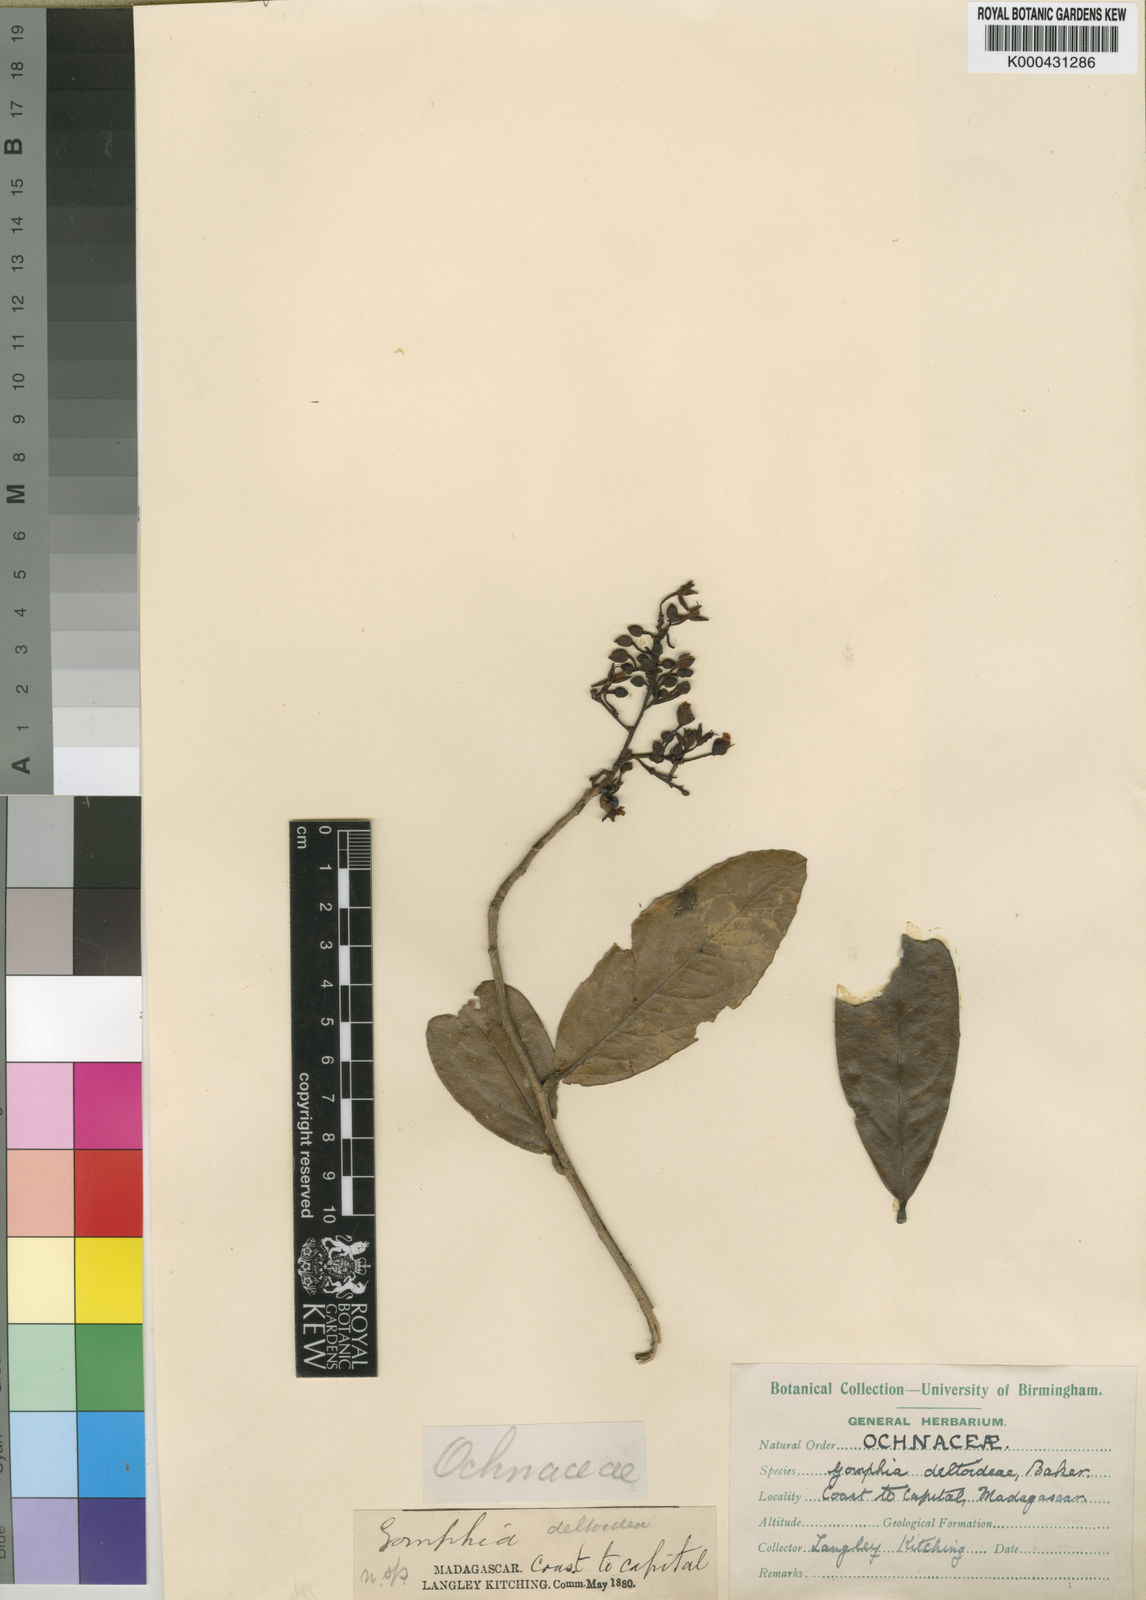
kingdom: Plantae
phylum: Tracheophyta
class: Magnoliopsida
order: Malpighiales
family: Ochnaceae
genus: Campylospermum
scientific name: Campylospermum deltoideum
